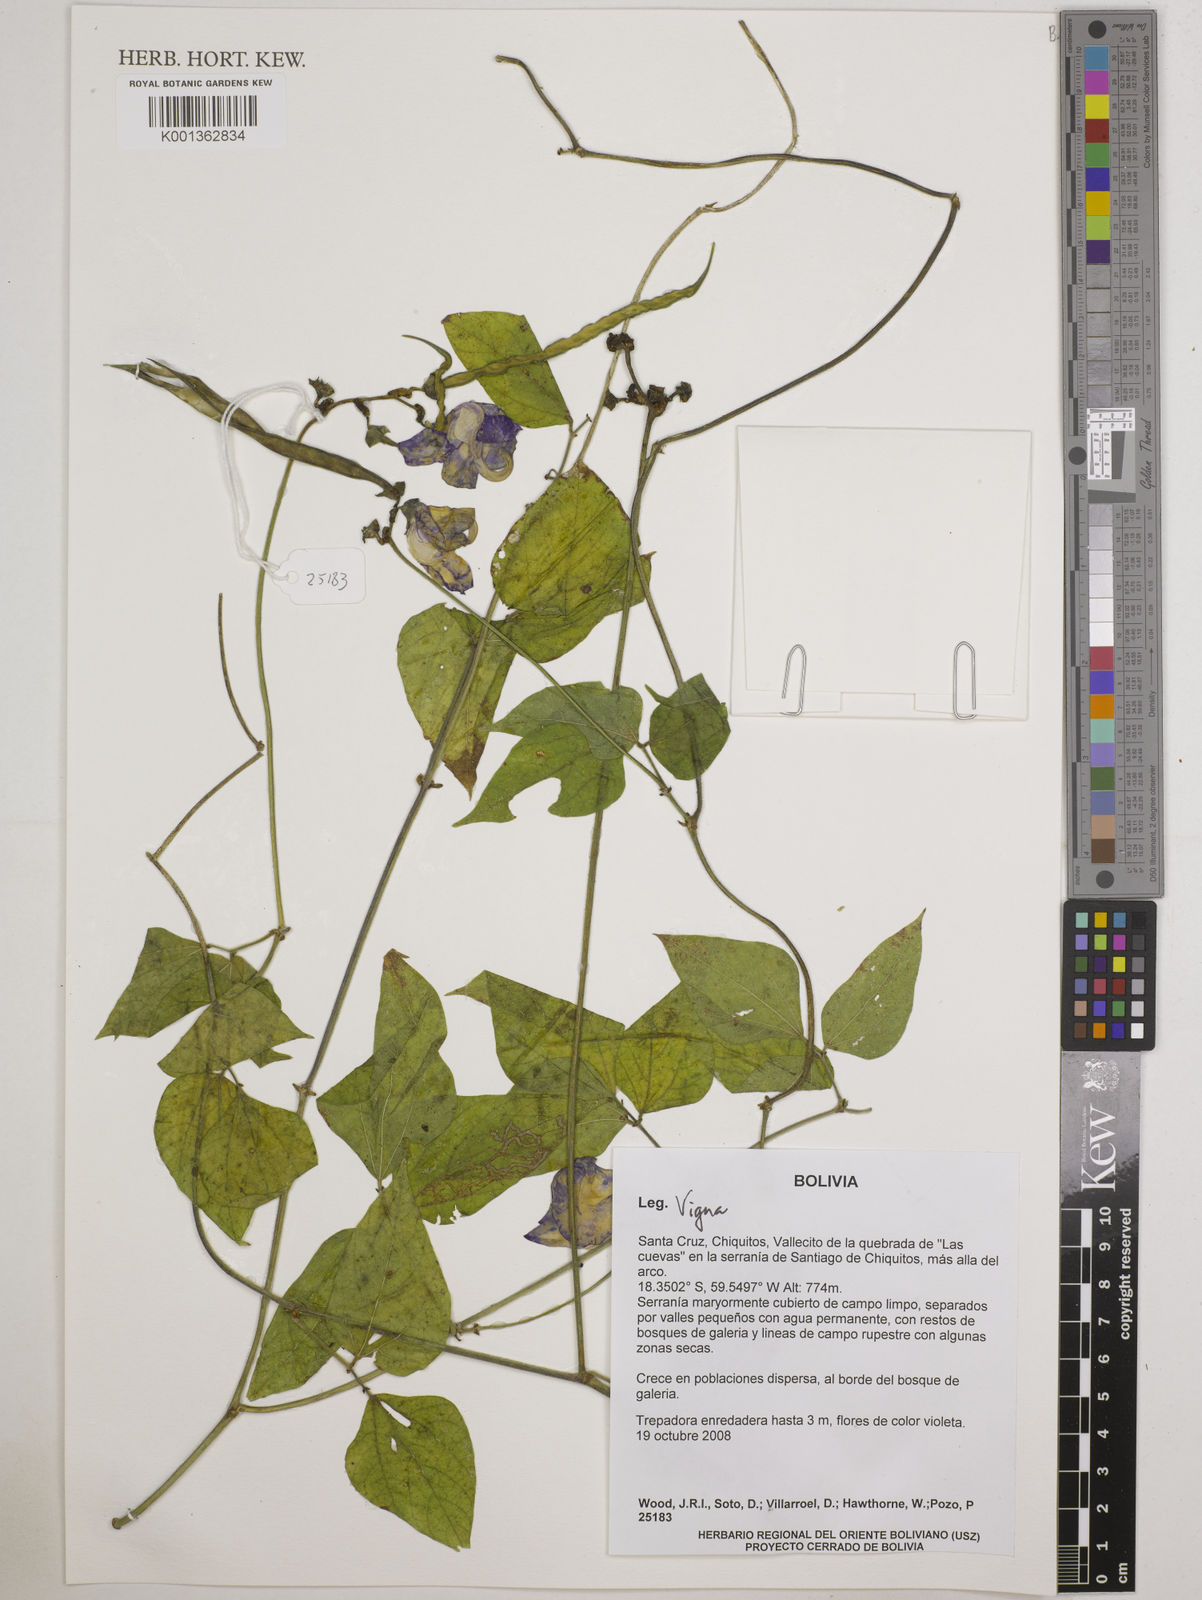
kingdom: Plantae
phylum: Tracheophyta
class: Magnoliopsida
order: Fabales
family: Fabaceae
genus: Vigna
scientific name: Vigna
